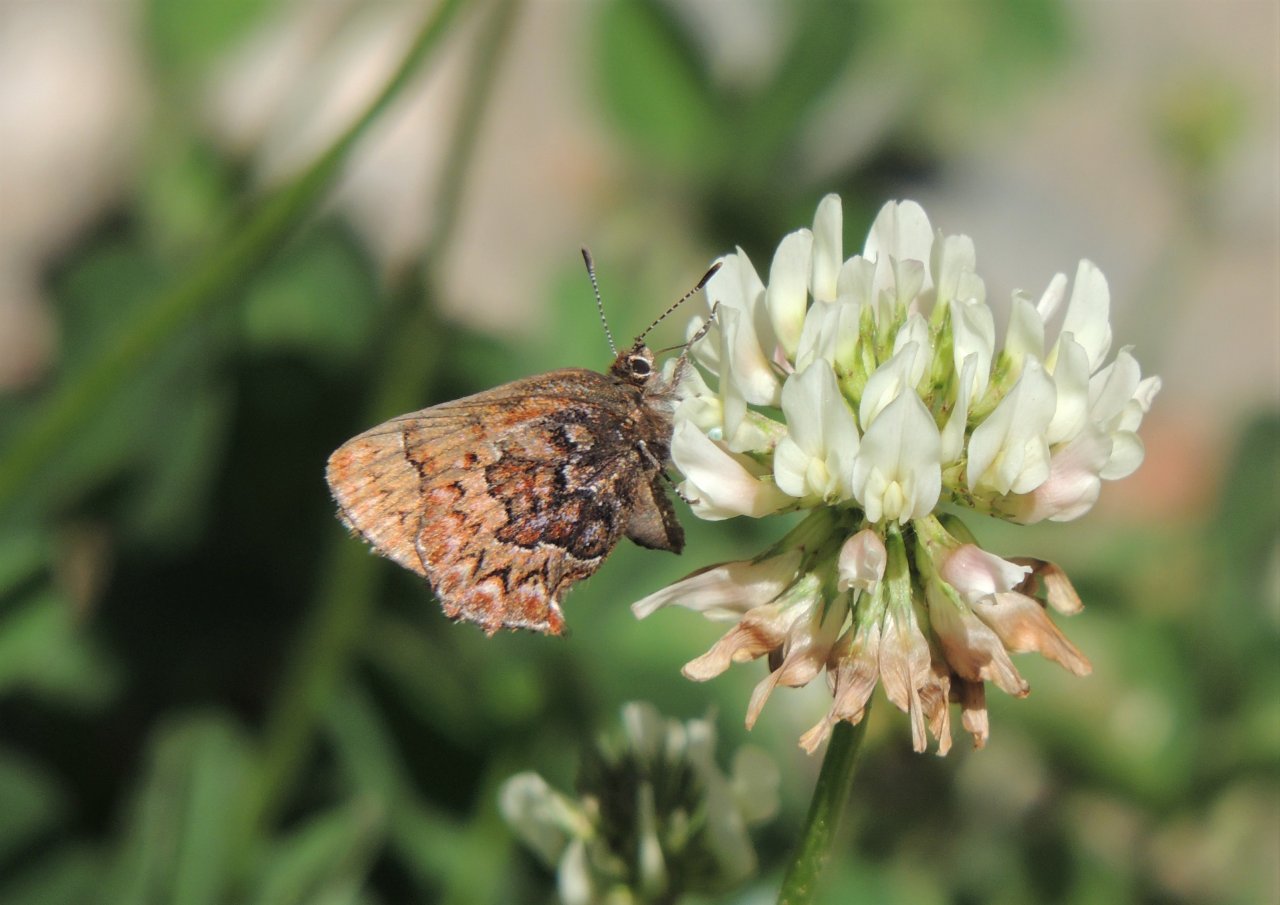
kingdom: Animalia
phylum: Arthropoda
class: Insecta
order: Lepidoptera
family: Lycaenidae
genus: Incisalia
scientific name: Incisalia eryphon
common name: Western Pine Elfin
